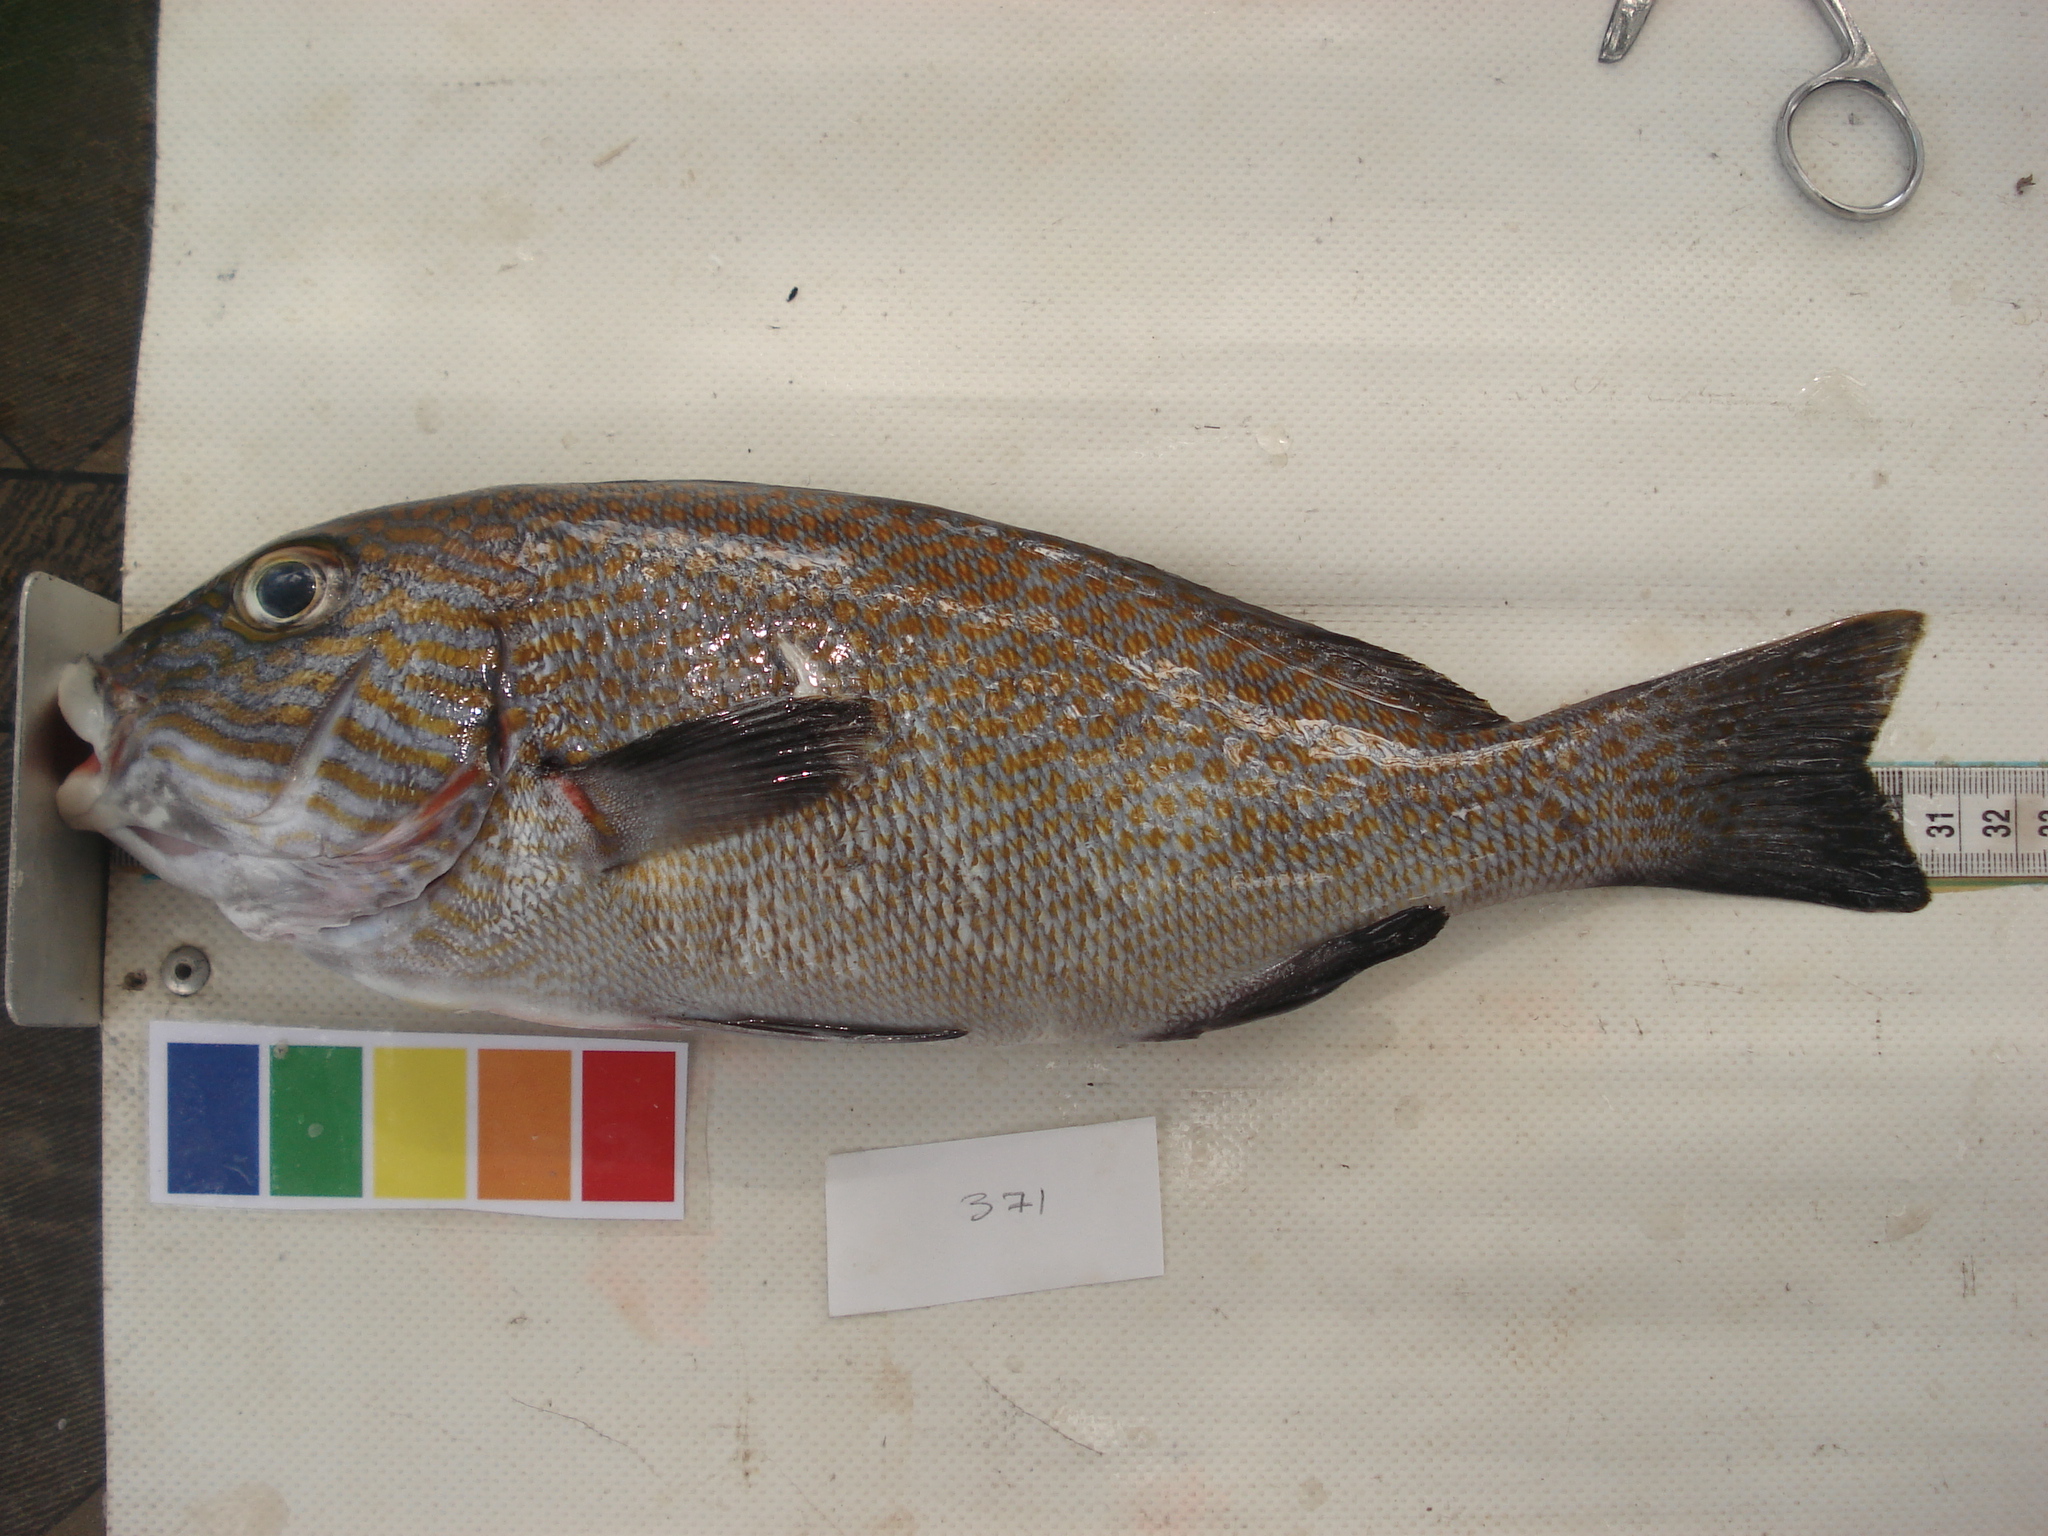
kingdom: Animalia
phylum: Chordata
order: Perciformes
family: Haemulidae
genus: Plectorhinchus
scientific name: Plectorhinchus flavomaculatus
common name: Netted sweetlips
